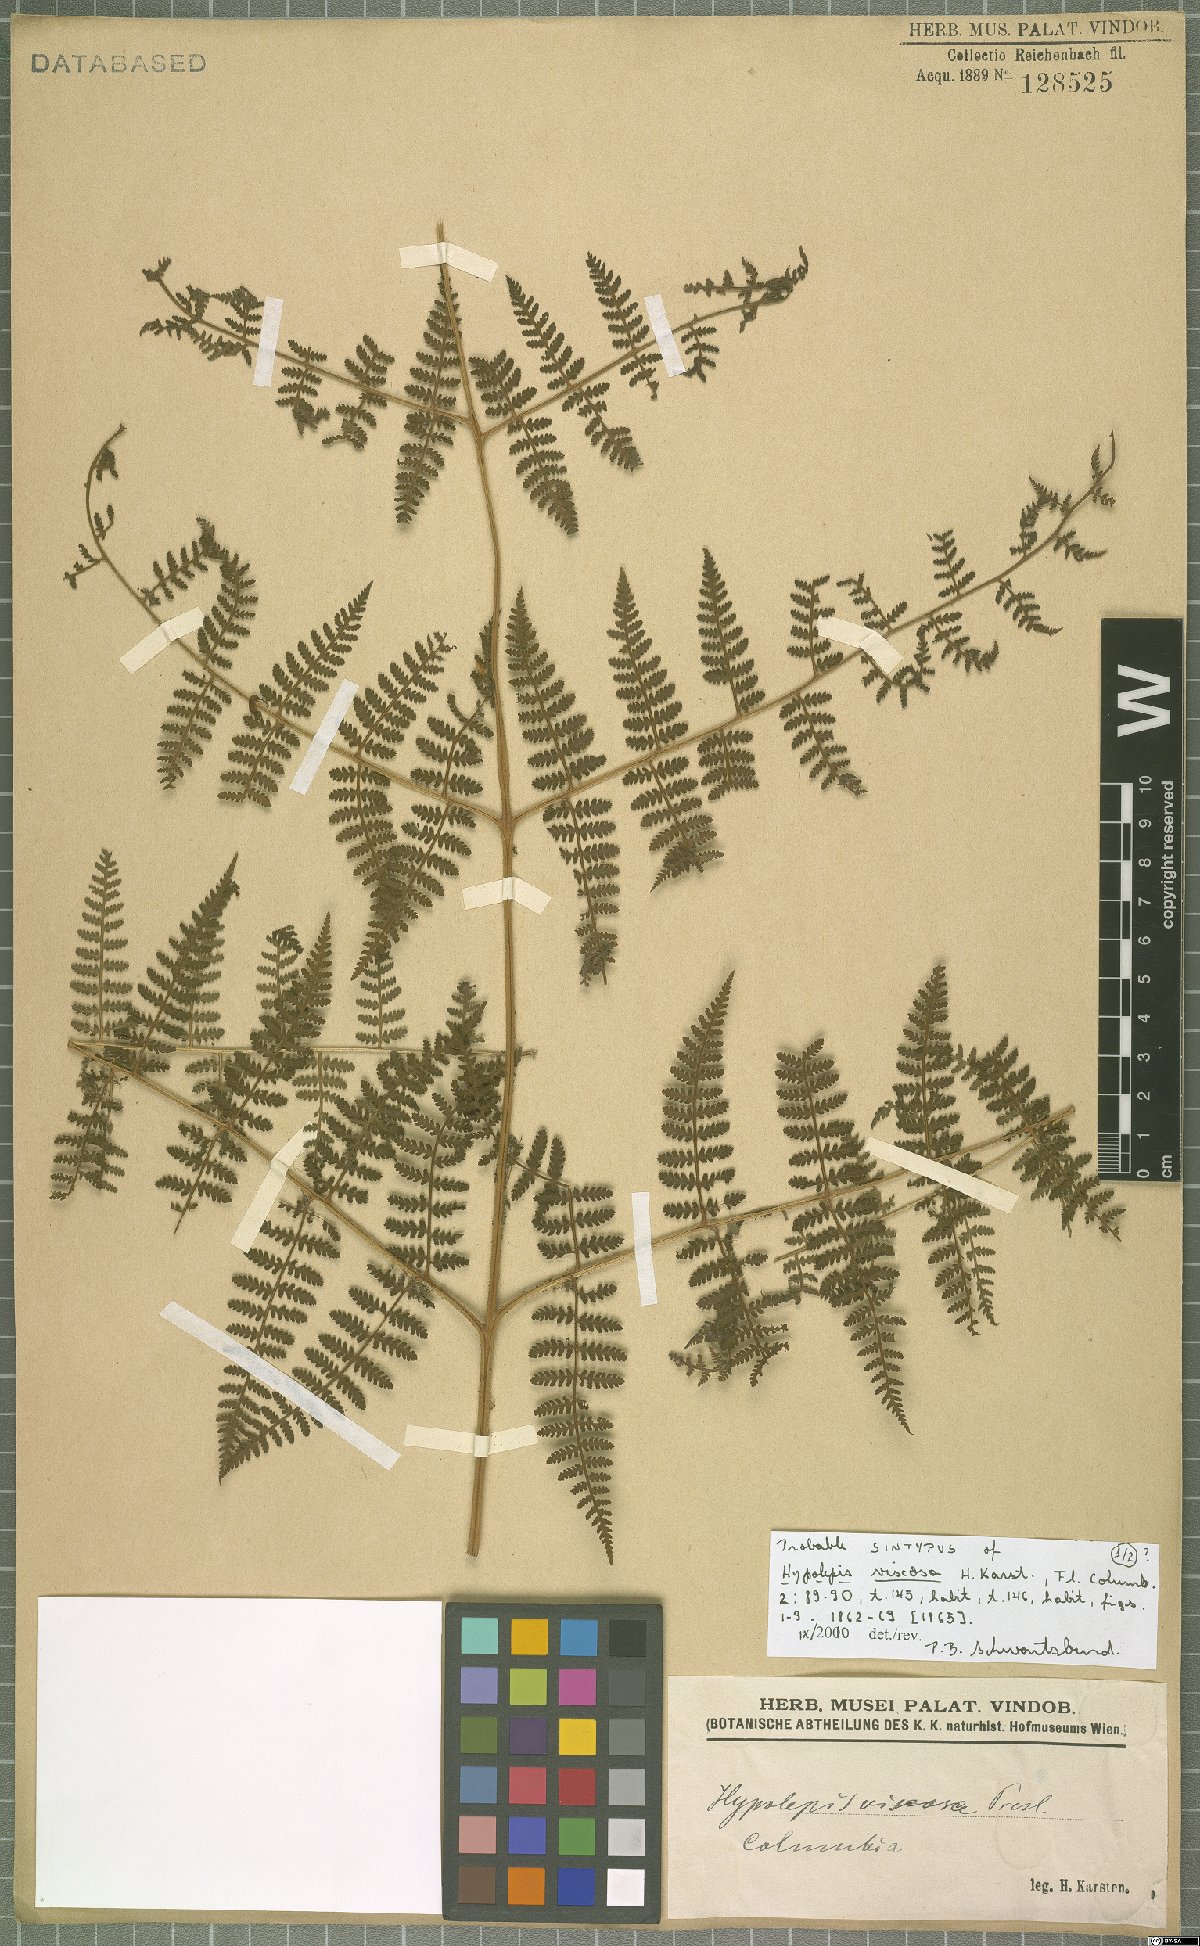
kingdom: Plantae
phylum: Tracheophyta
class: Polypodiopsida
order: Polypodiales
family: Dennstaedtiaceae
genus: Hypolepis
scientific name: Hypolepis viscosa
